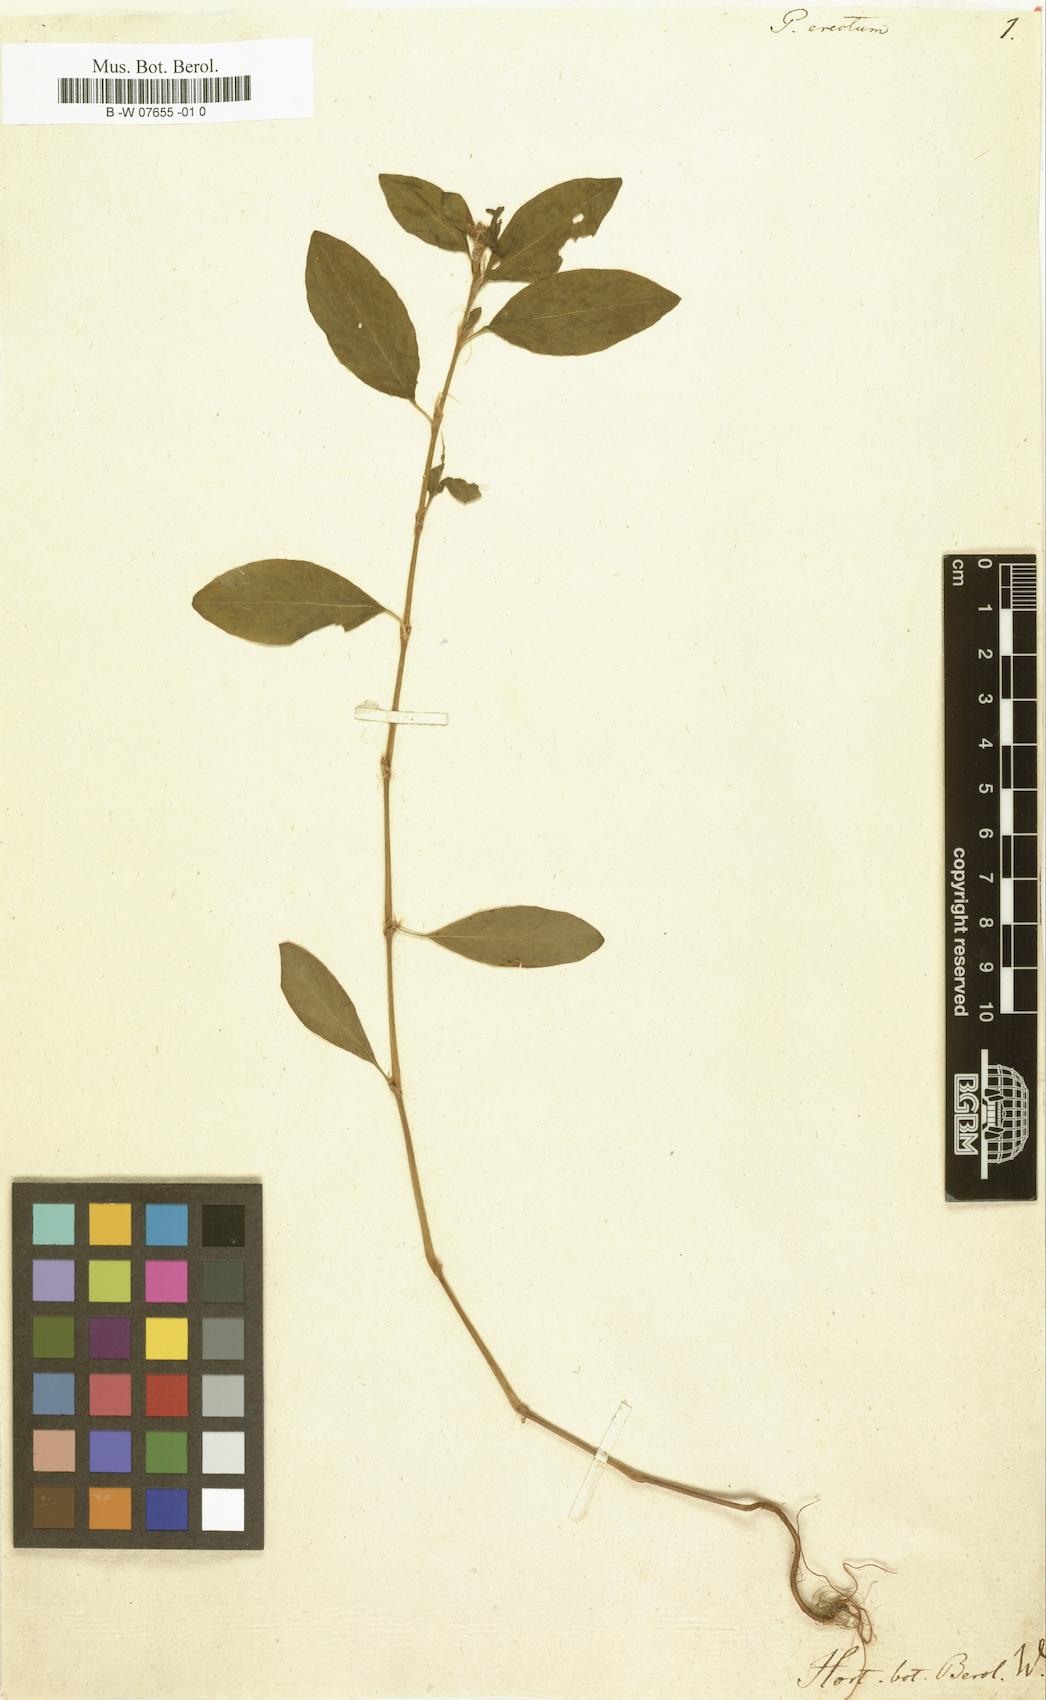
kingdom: Plantae
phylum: Tracheophyta
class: Magnoliopsida
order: Caryophyllales
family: Polygonaceae
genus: Polygonum
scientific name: Polygonum aviculare
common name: Prostrate knotweed
